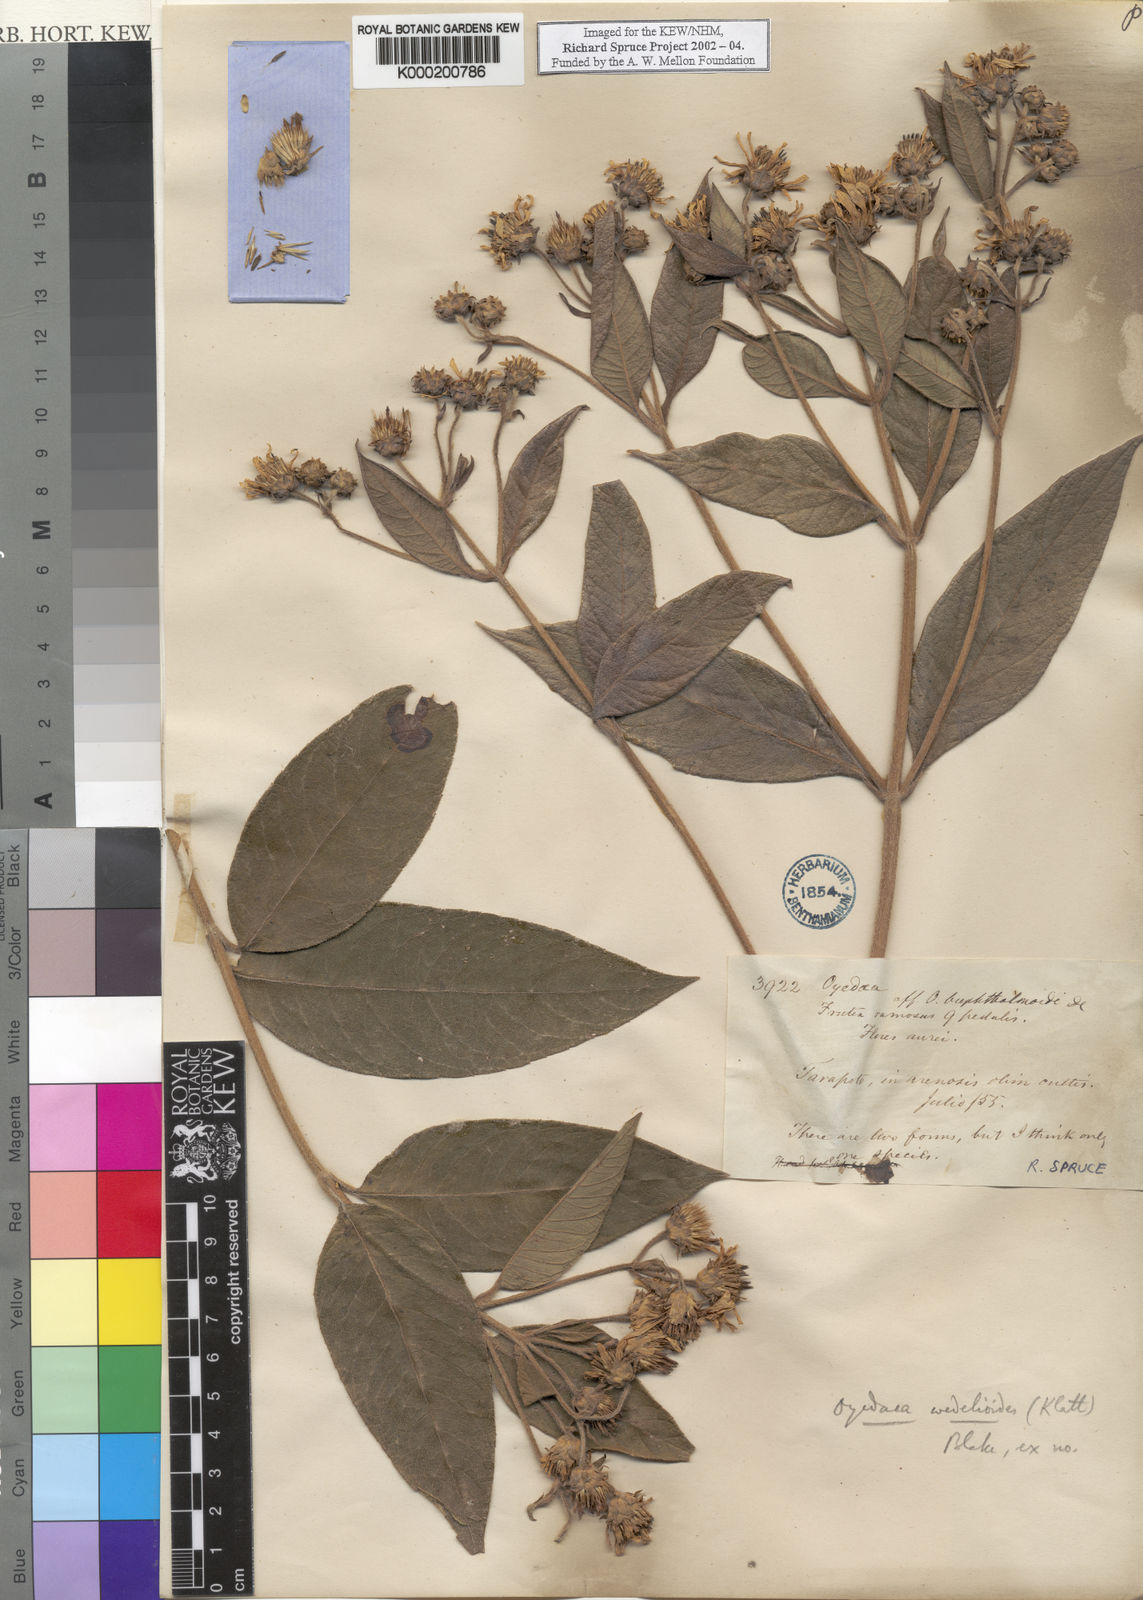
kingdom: Plantae
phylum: Tracheophyta
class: Magnoliopsida
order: Asterales
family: Asteraceae
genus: Oyedaea
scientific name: Oyedaea wedelioides
